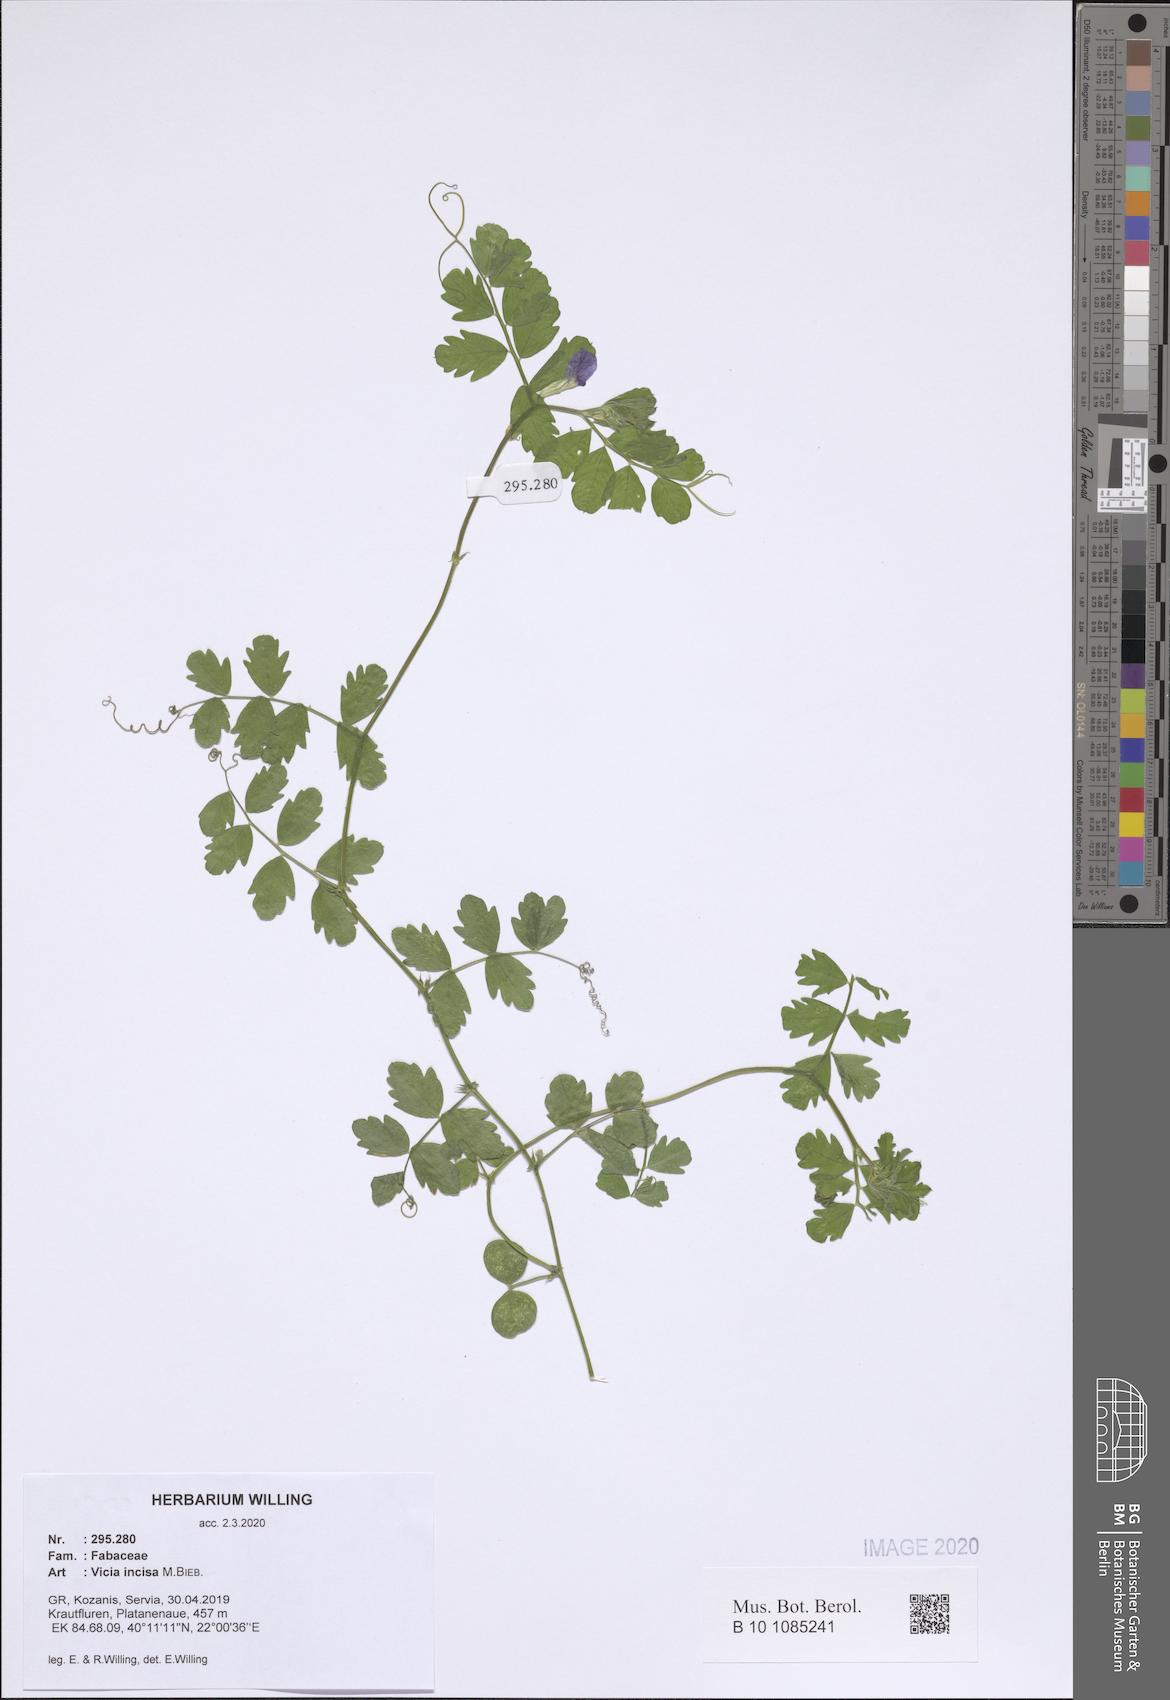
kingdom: Plantae
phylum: Tracheophyta
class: Magnoliopsida
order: Fabales
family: Fabaceae
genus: Vicia
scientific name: Vicia sativa
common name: Garden vetch
